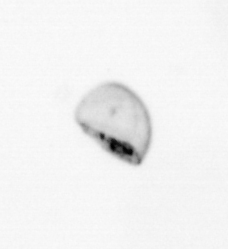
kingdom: Chromista
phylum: Ochrophyta
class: Bacillariophyceae
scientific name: Bacillariophyceae
